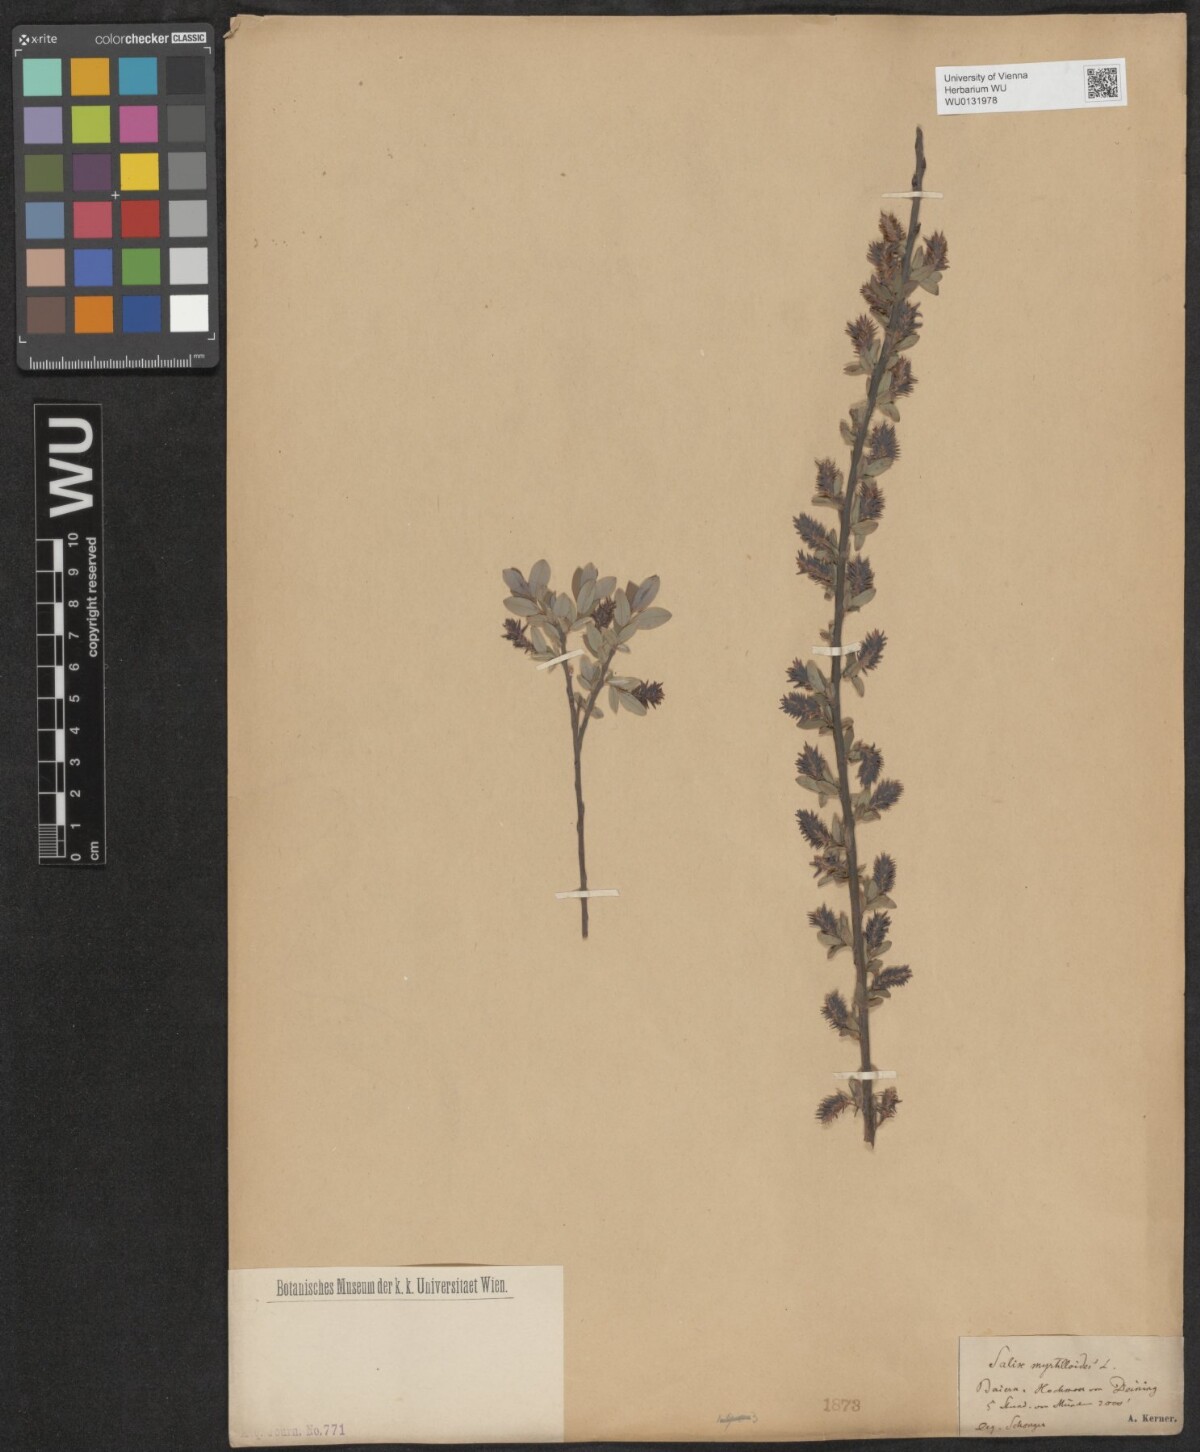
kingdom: Plantae
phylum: Tracheophyta
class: Magnoliopsida
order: Malpighiales
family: Salicaceae
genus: Salix
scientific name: Salix myrtilloides
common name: Myrtle-leaved willow
